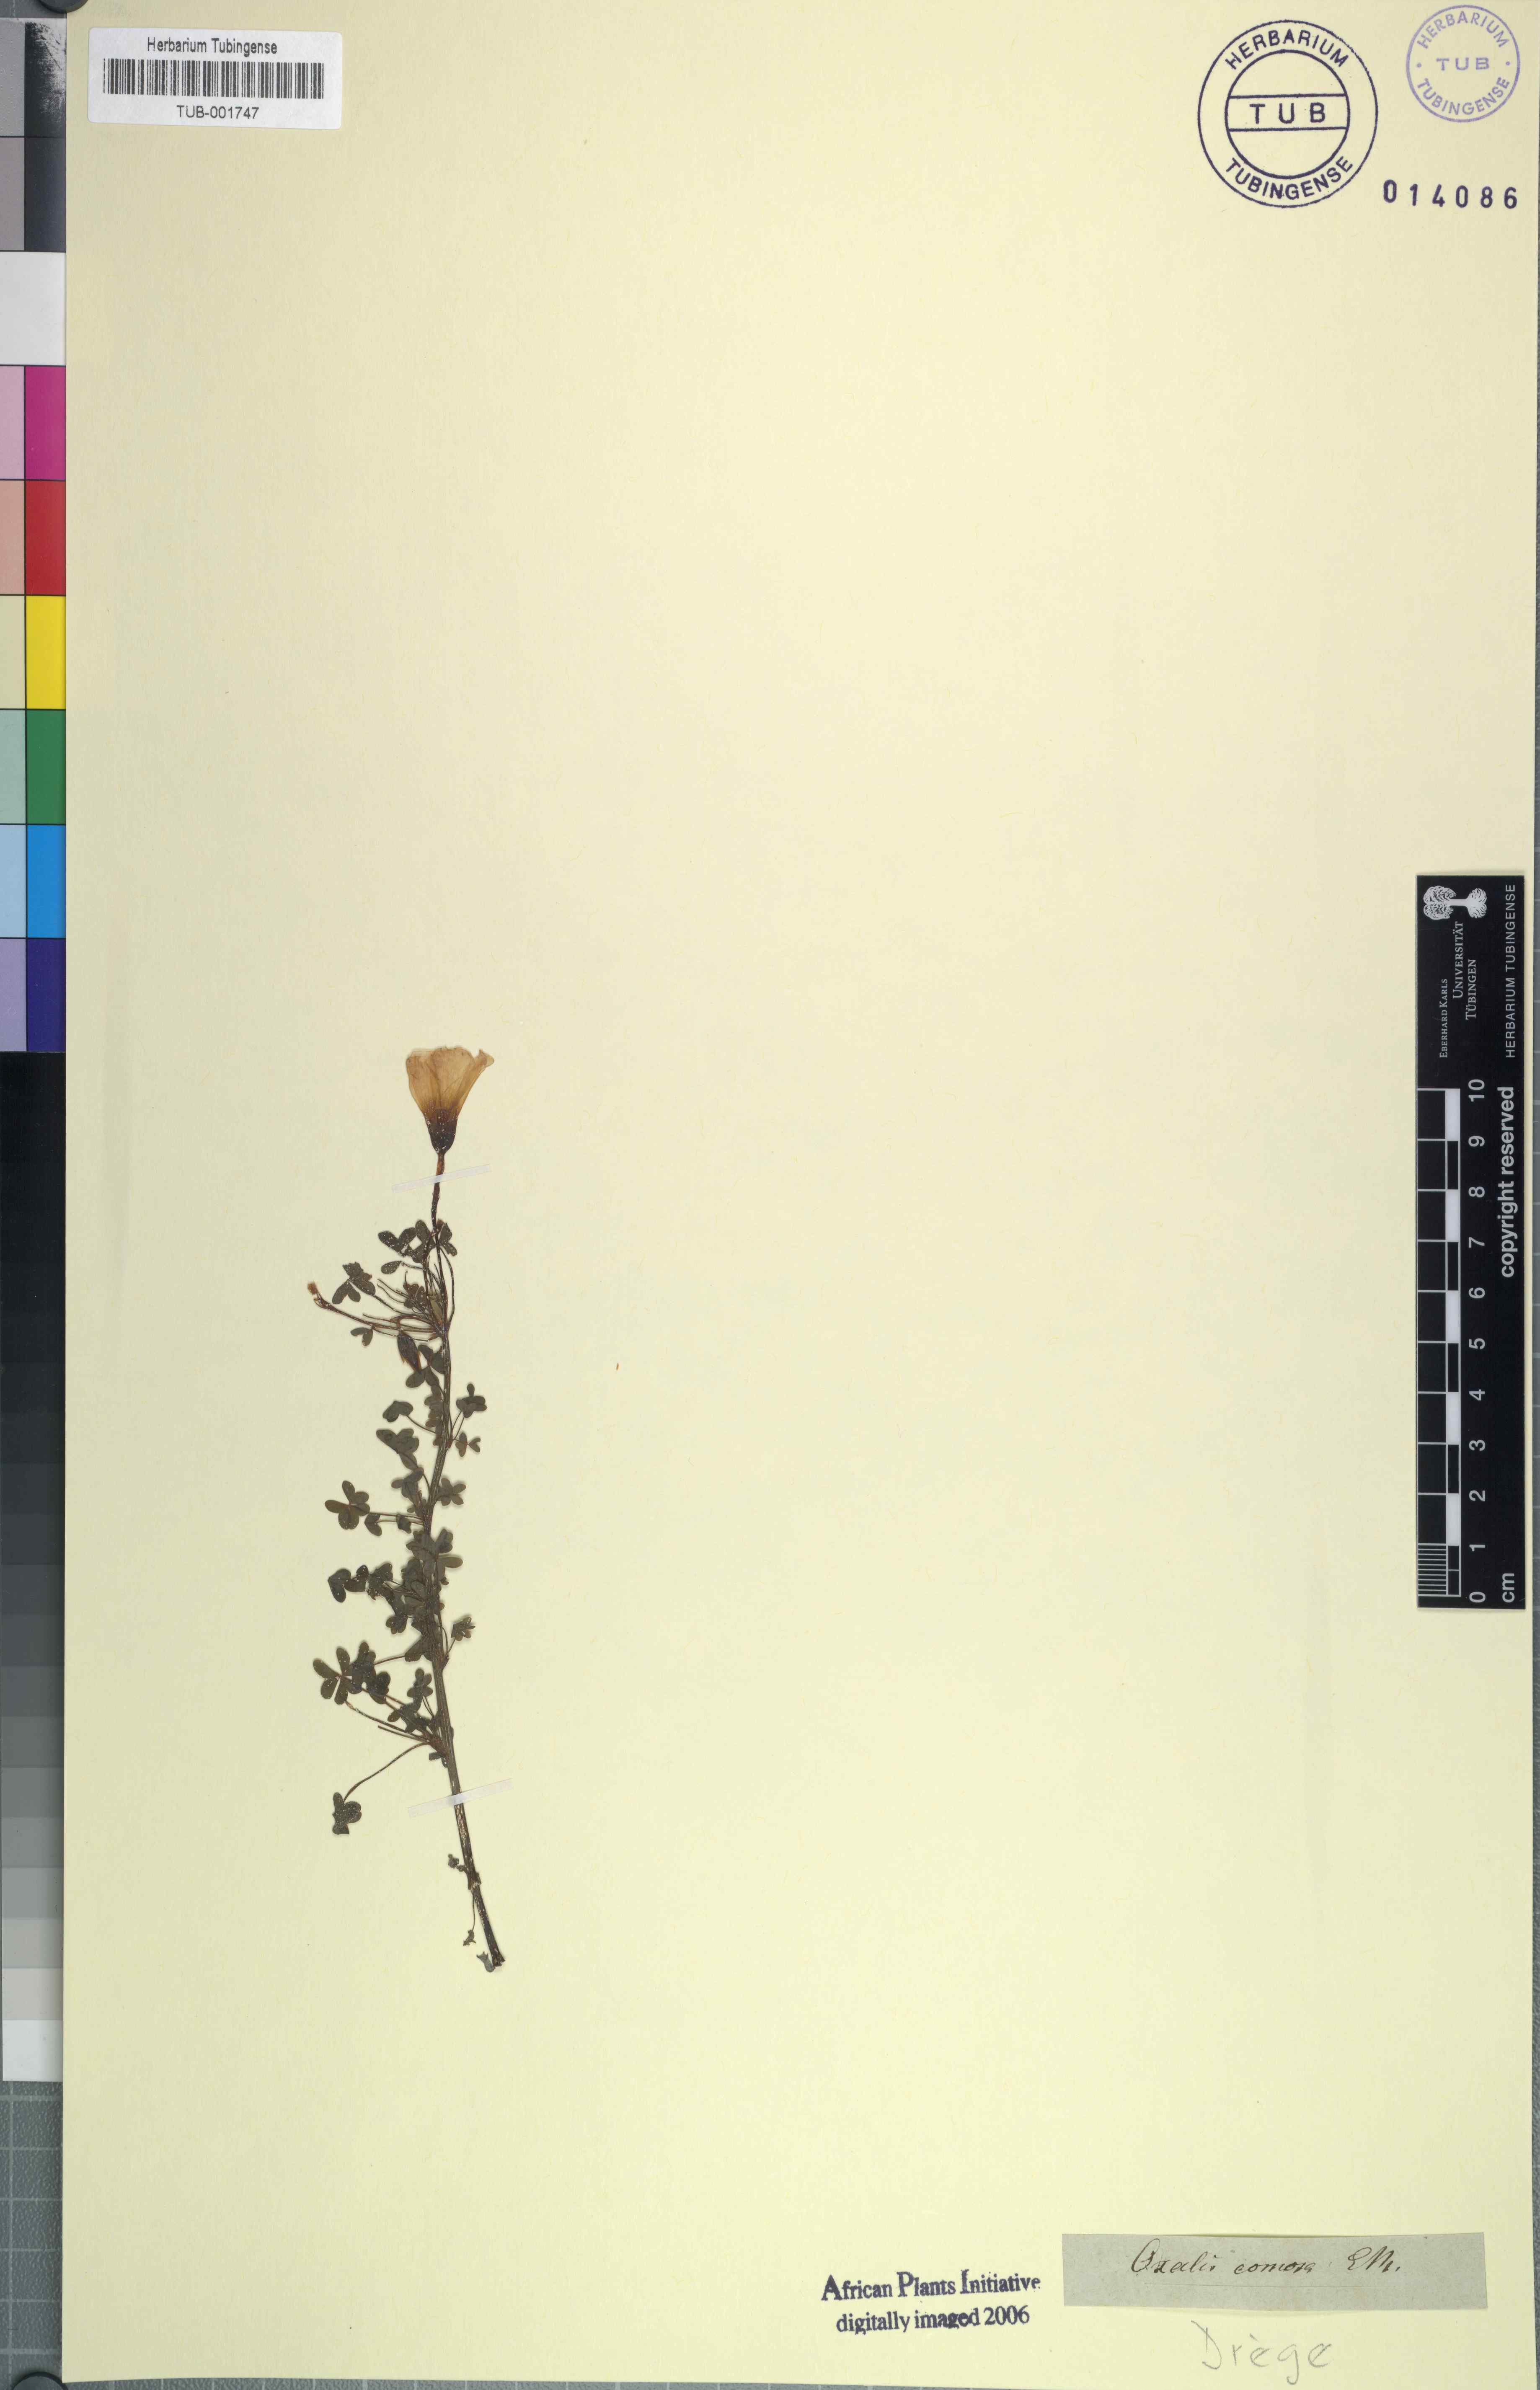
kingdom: Plantae
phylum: Tracheophyta
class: Magnoliopsida
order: Oxalidales
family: Oxalidaceae
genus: Oxalis
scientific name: Oxalis comosa
